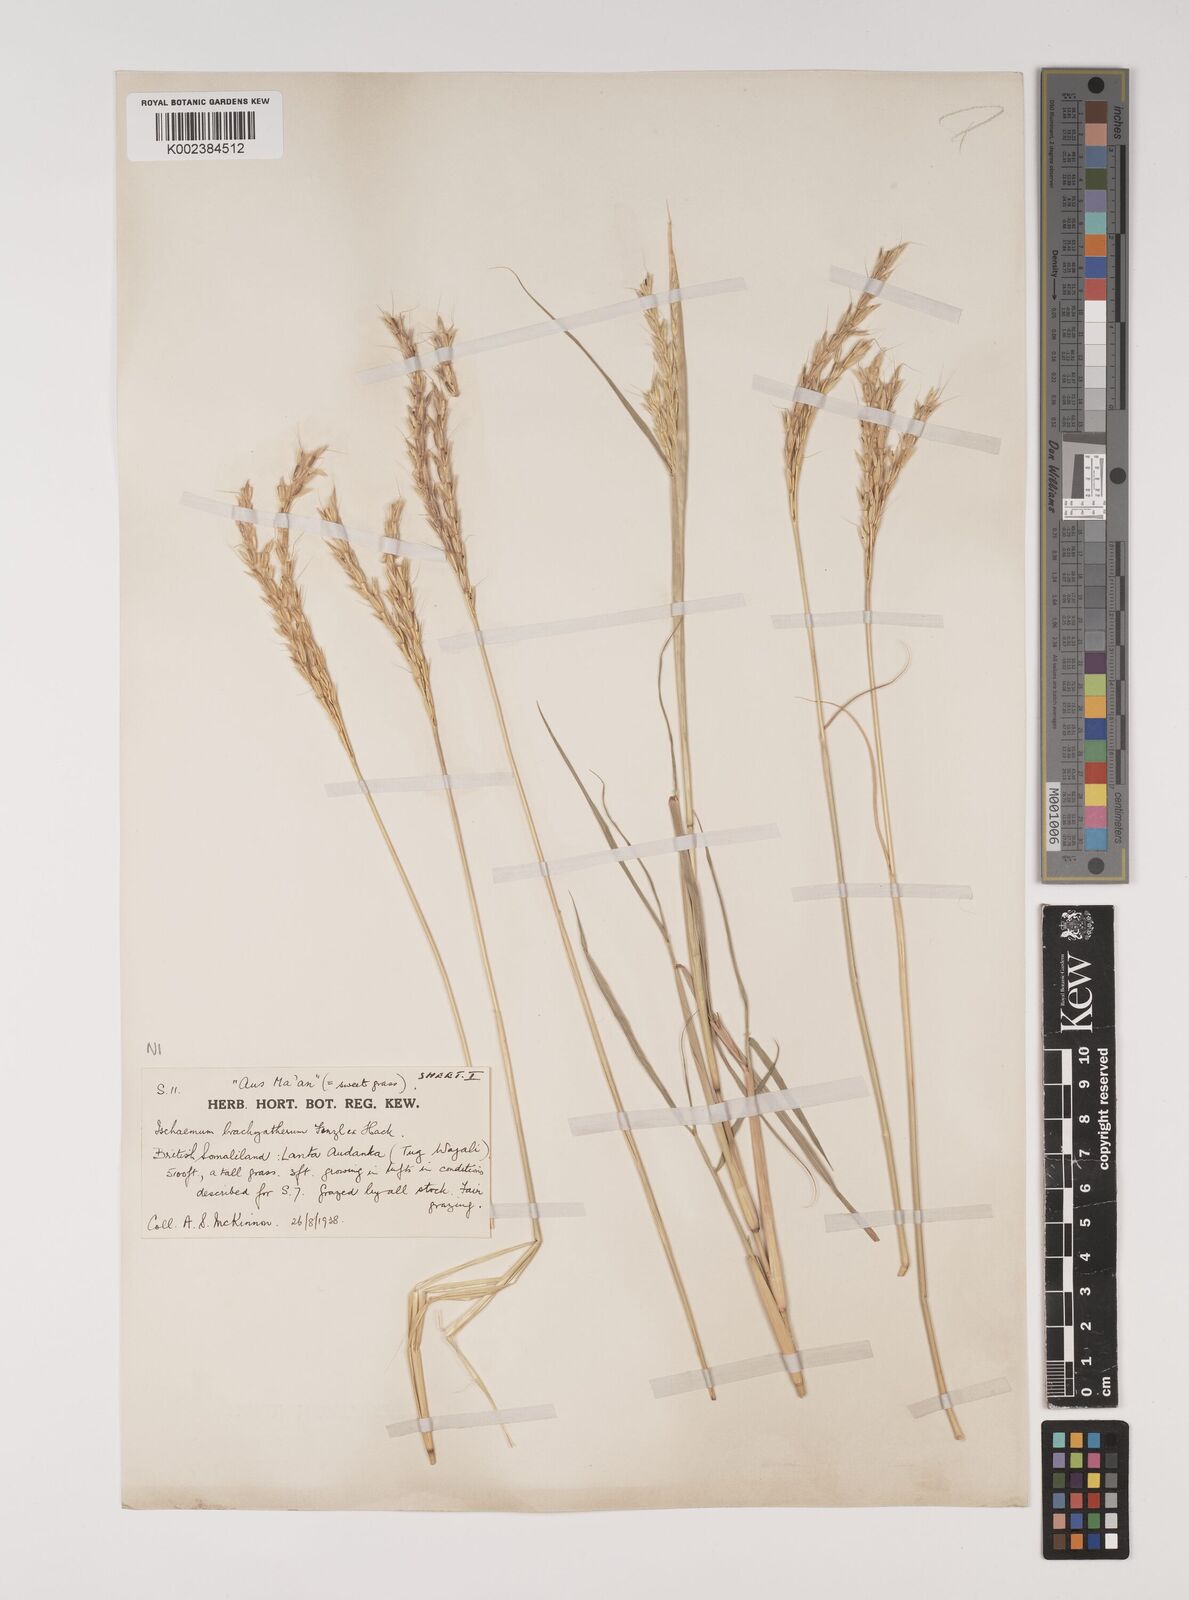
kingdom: Plantae
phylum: Tracheophyta
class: Liliopsida
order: Poales
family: Poaceae
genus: Ischaemum
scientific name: Ischaemum afrum
